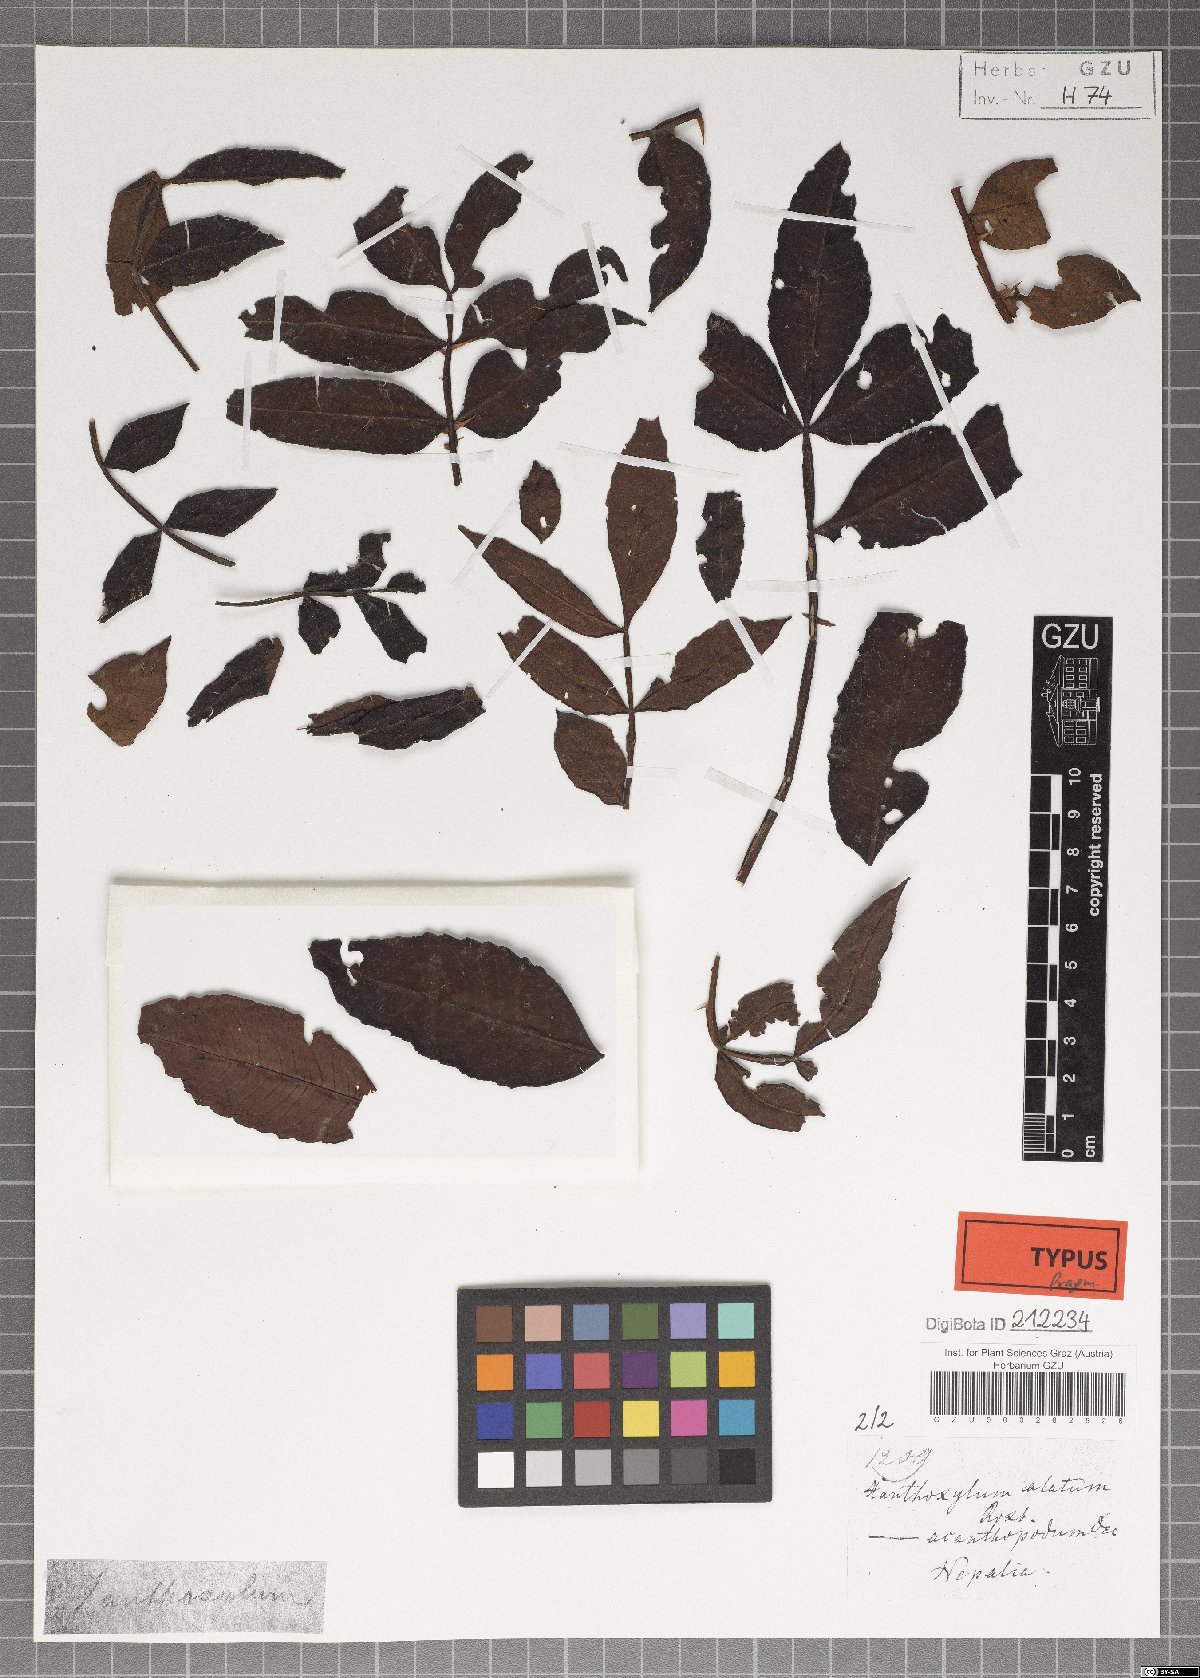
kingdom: Plantae
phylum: Tracheophyta
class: Magnoliopsida
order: Sapindales
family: Rutaceae
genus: Zanthoxylum
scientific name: Zanthoxylum acanthopodium
